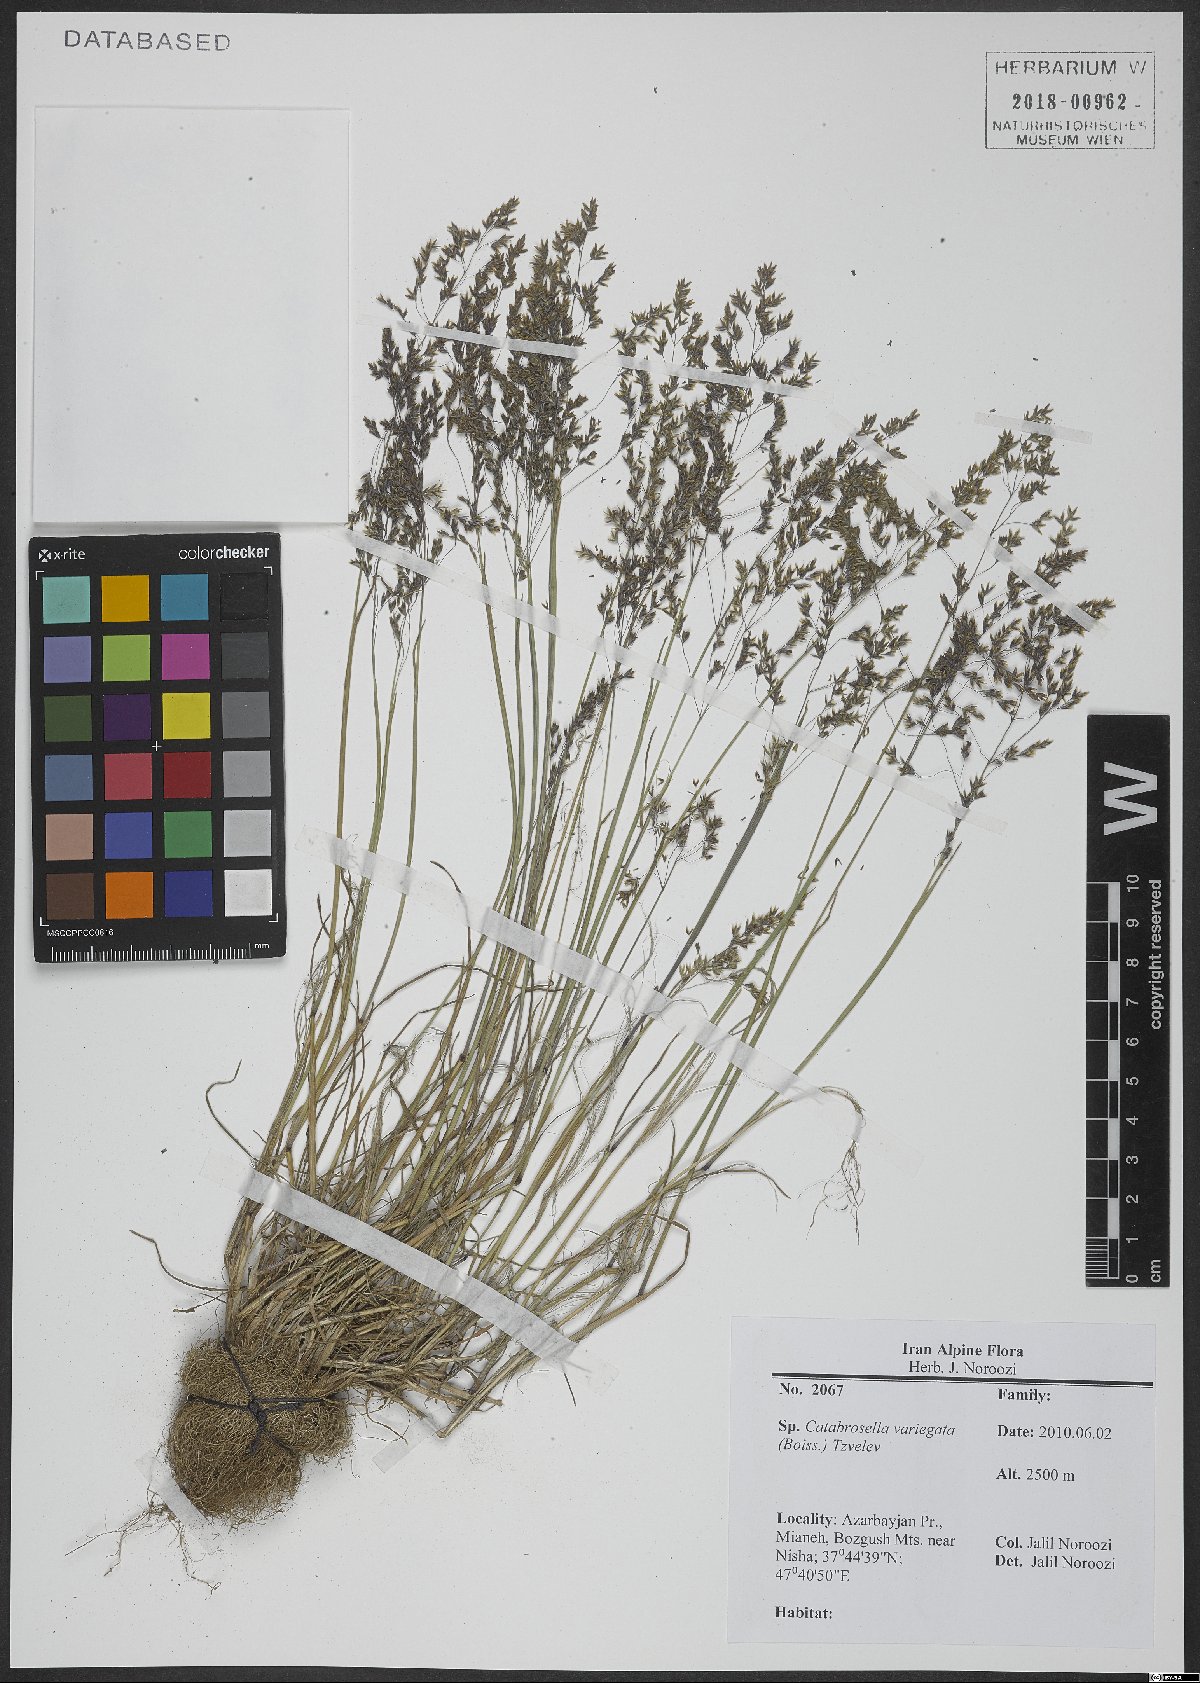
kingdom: Plantae
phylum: Tracheophyta
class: Liliopsida
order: Poales
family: Poaceae
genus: Catabrosella
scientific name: Catabrosella variegata
